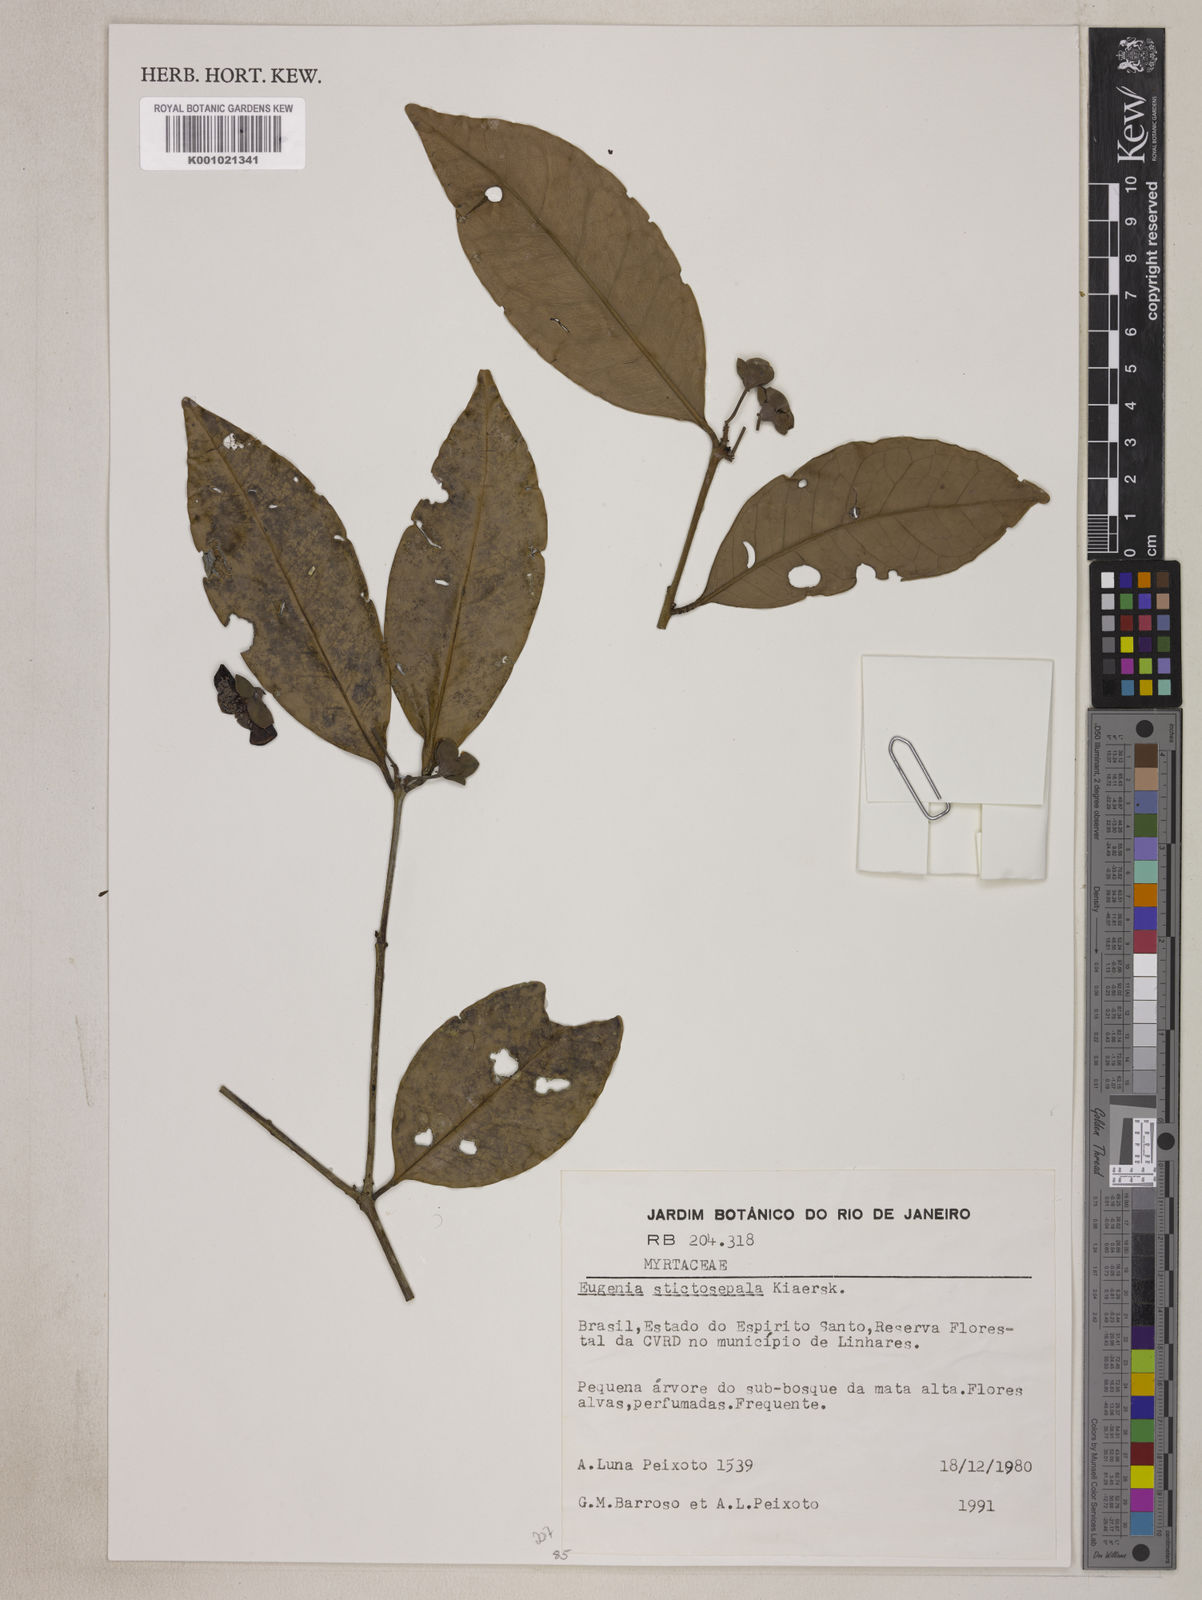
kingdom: Plantae
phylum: Tracheophyta
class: Magnoliopsida
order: Myrtales
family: Myrtaceae
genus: Eugenia
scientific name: Eugenia prasina
